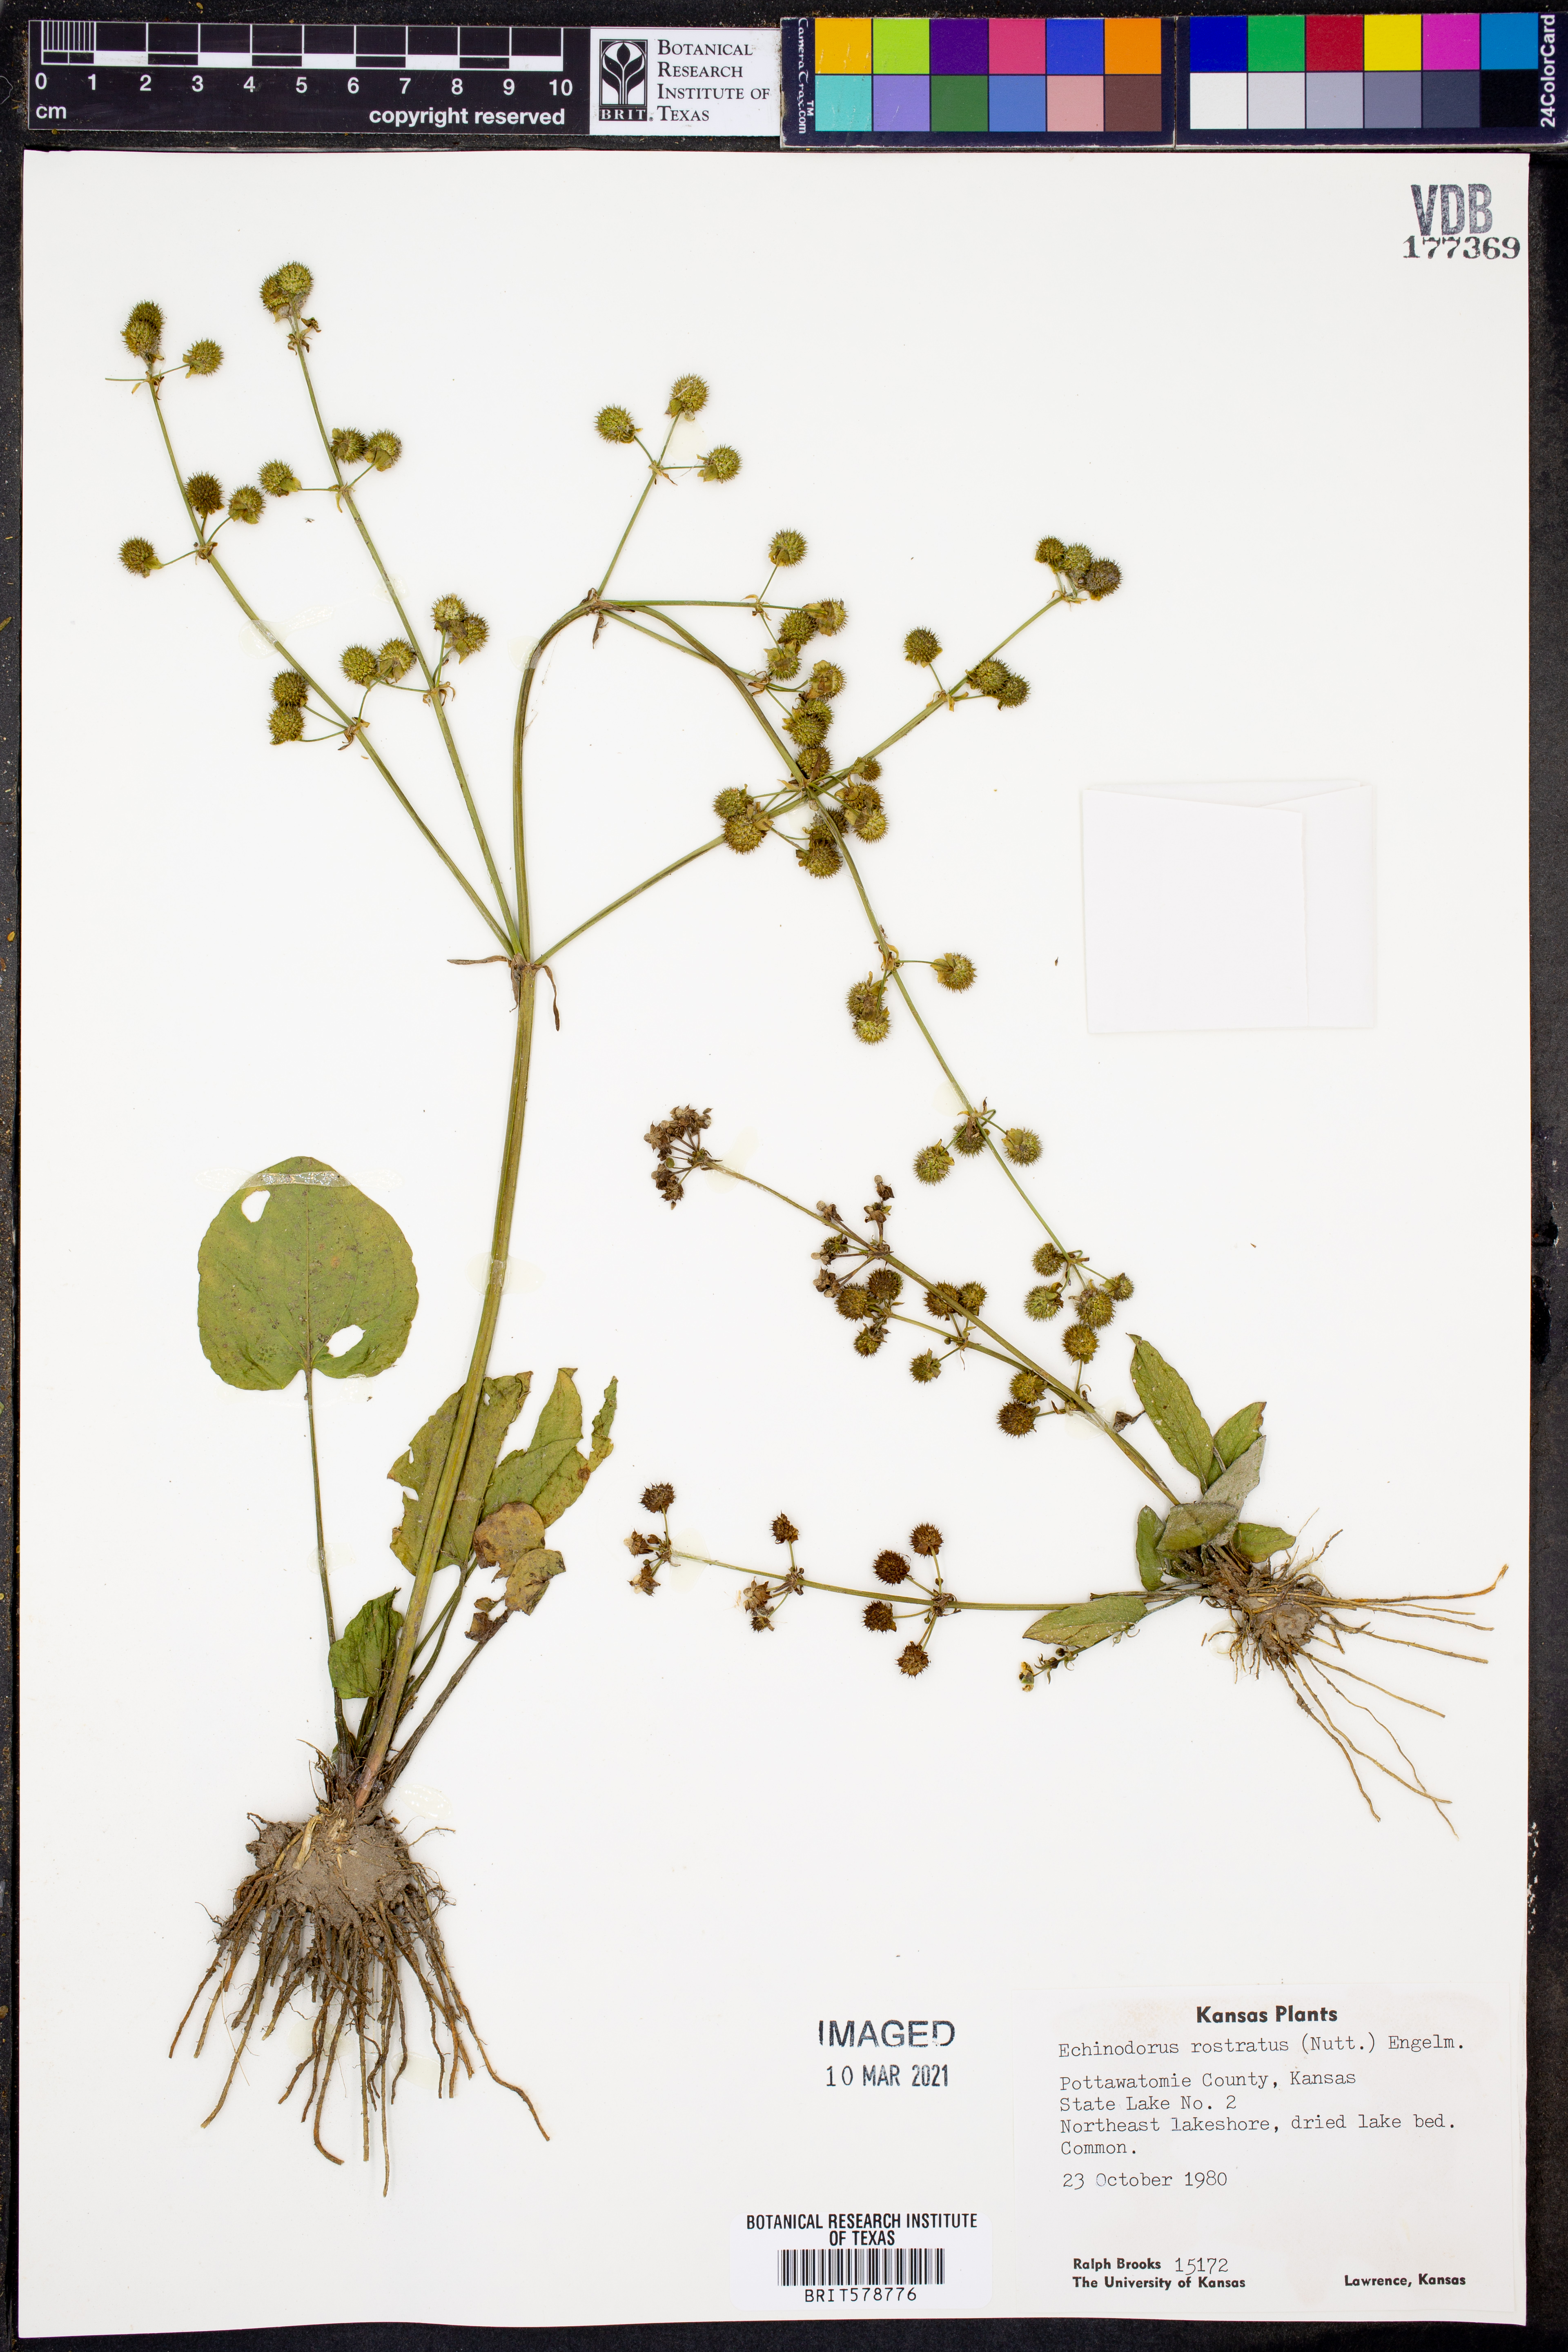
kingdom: Plantae
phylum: Tracheophyta
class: Liliopsida
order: Alismatales
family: Alismataceae
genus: Echinodorus
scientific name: Echinodorus berteroi
